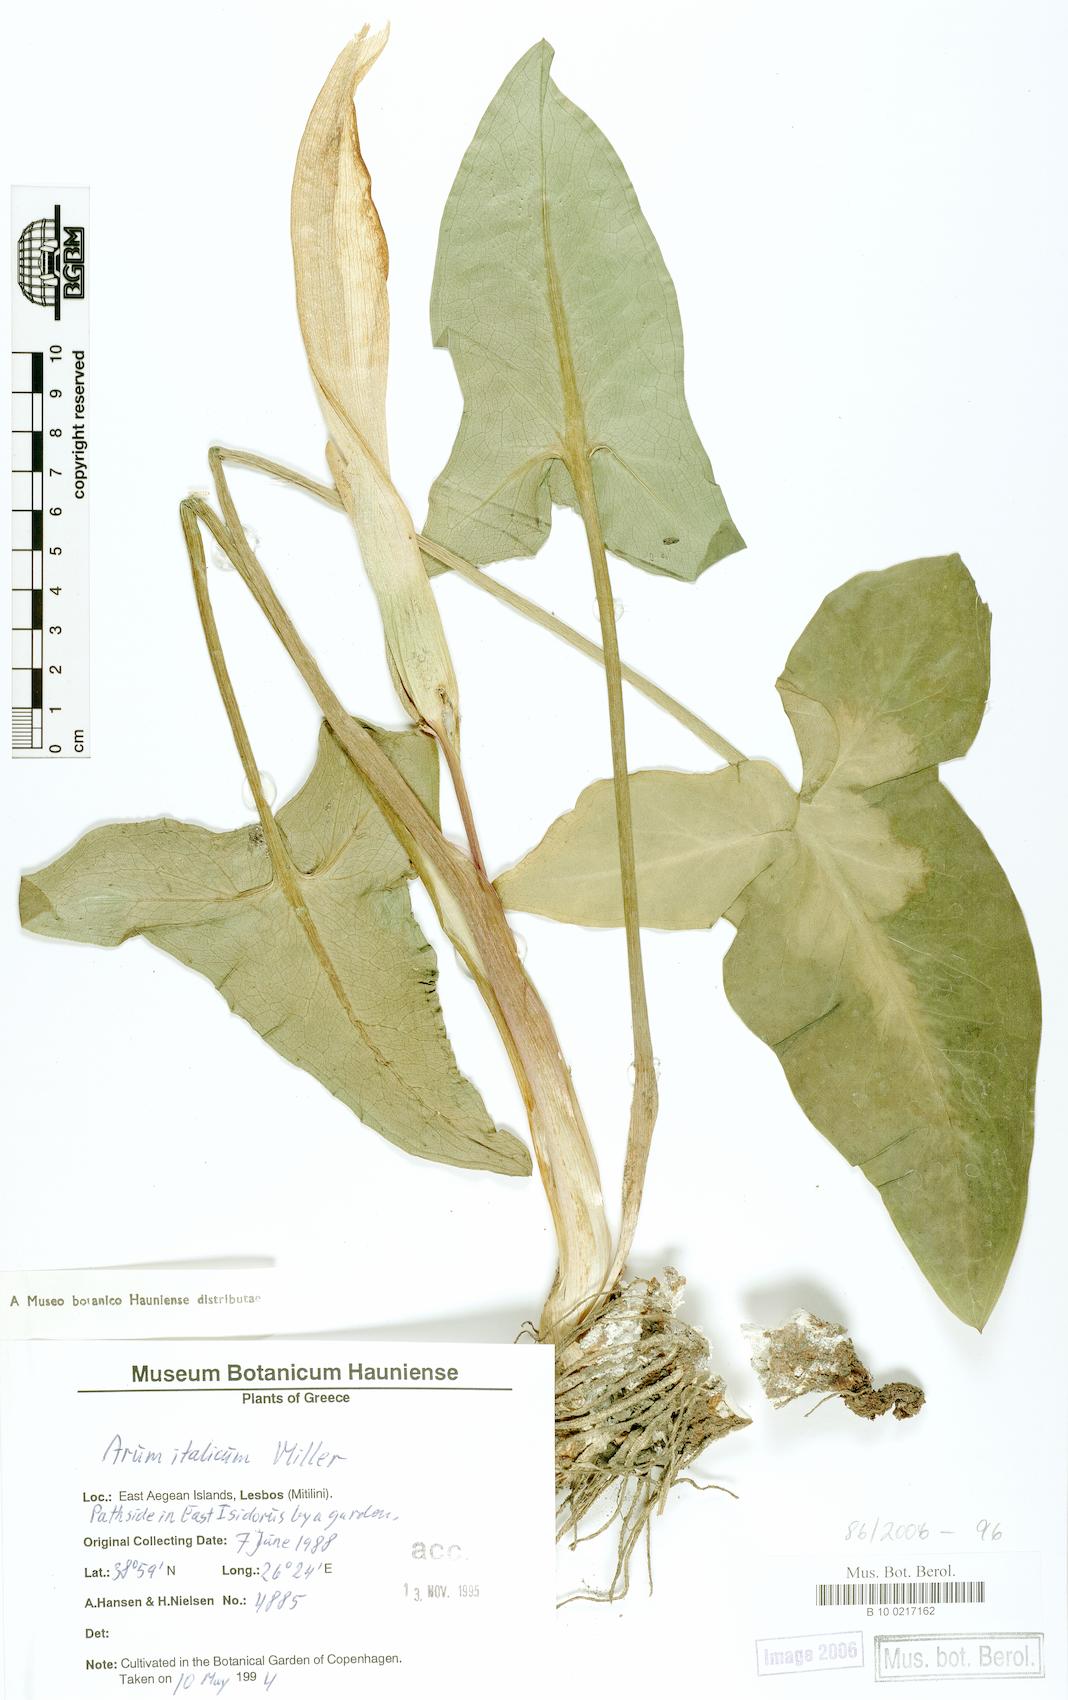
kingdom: Plantae
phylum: Tracheophyta
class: Liliopsida
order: Alismatales
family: Araceae
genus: Arum
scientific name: Arum italicum
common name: Italian lords-and-ladies
